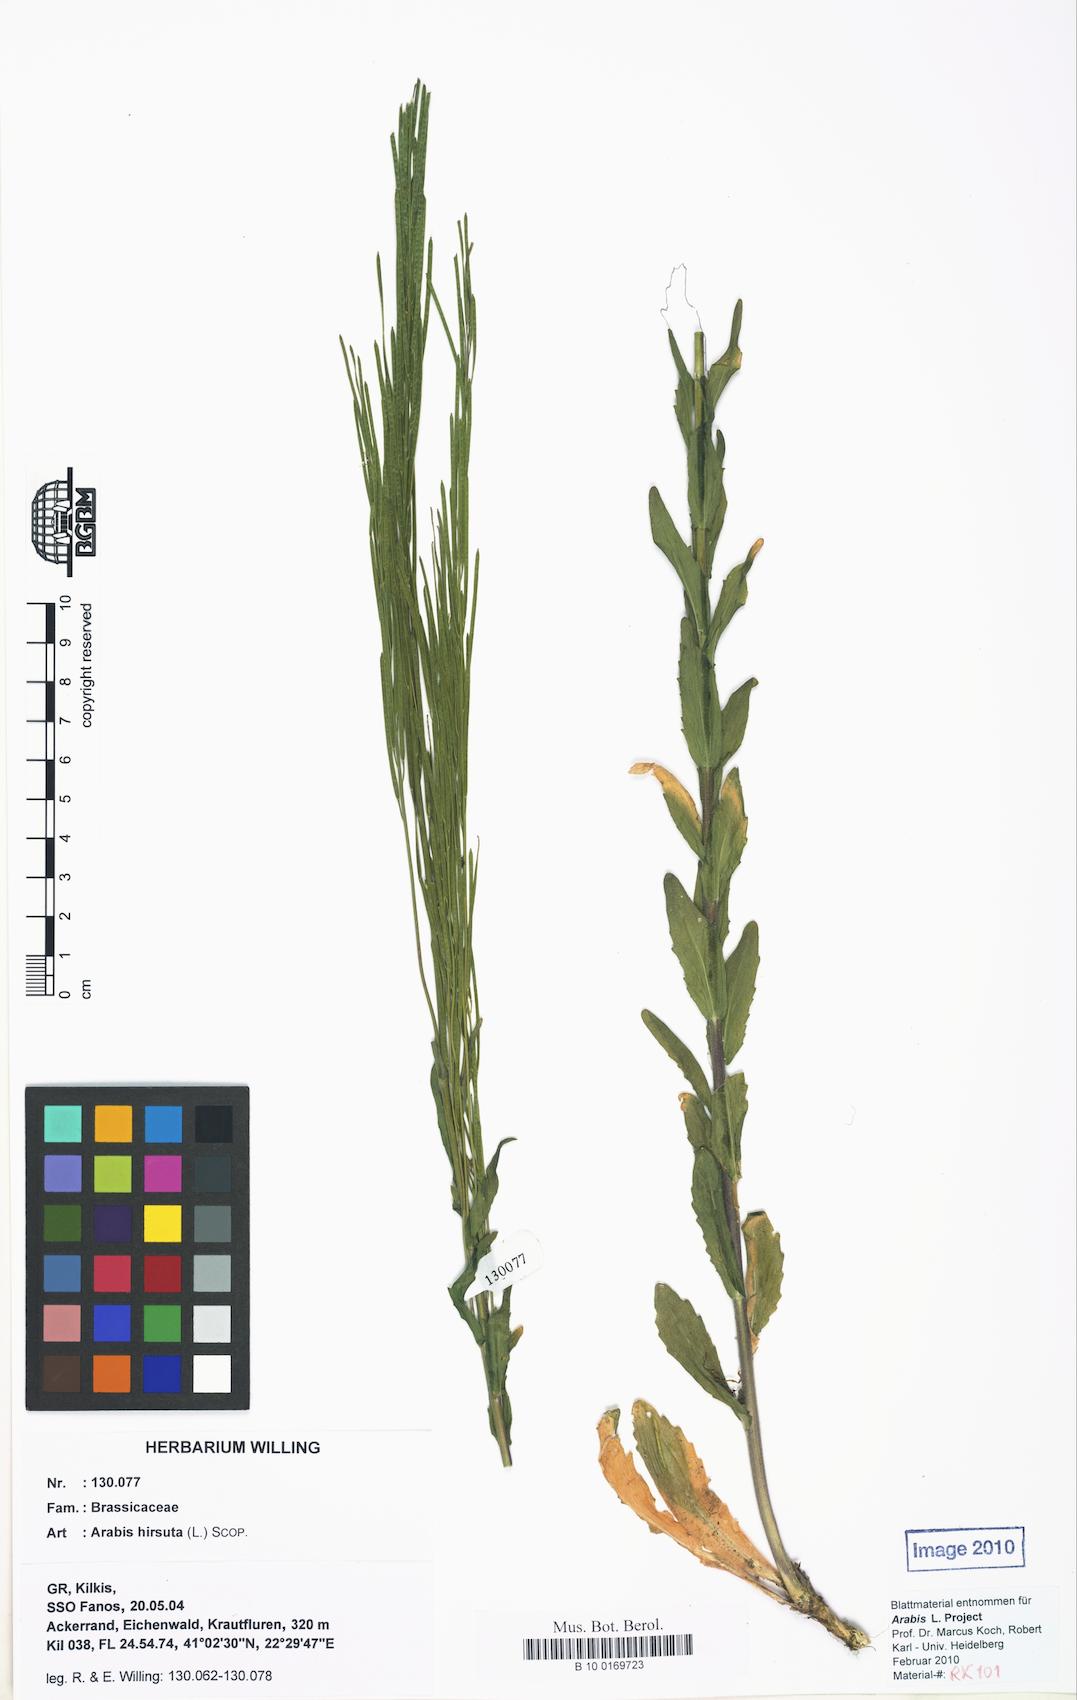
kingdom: Plantae
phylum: Tracheophyta
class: Magnoliopsida
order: Brassicales
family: Brassicaceae
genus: Arabis
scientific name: Arabis hirsuta
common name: Hairy rock-cress
